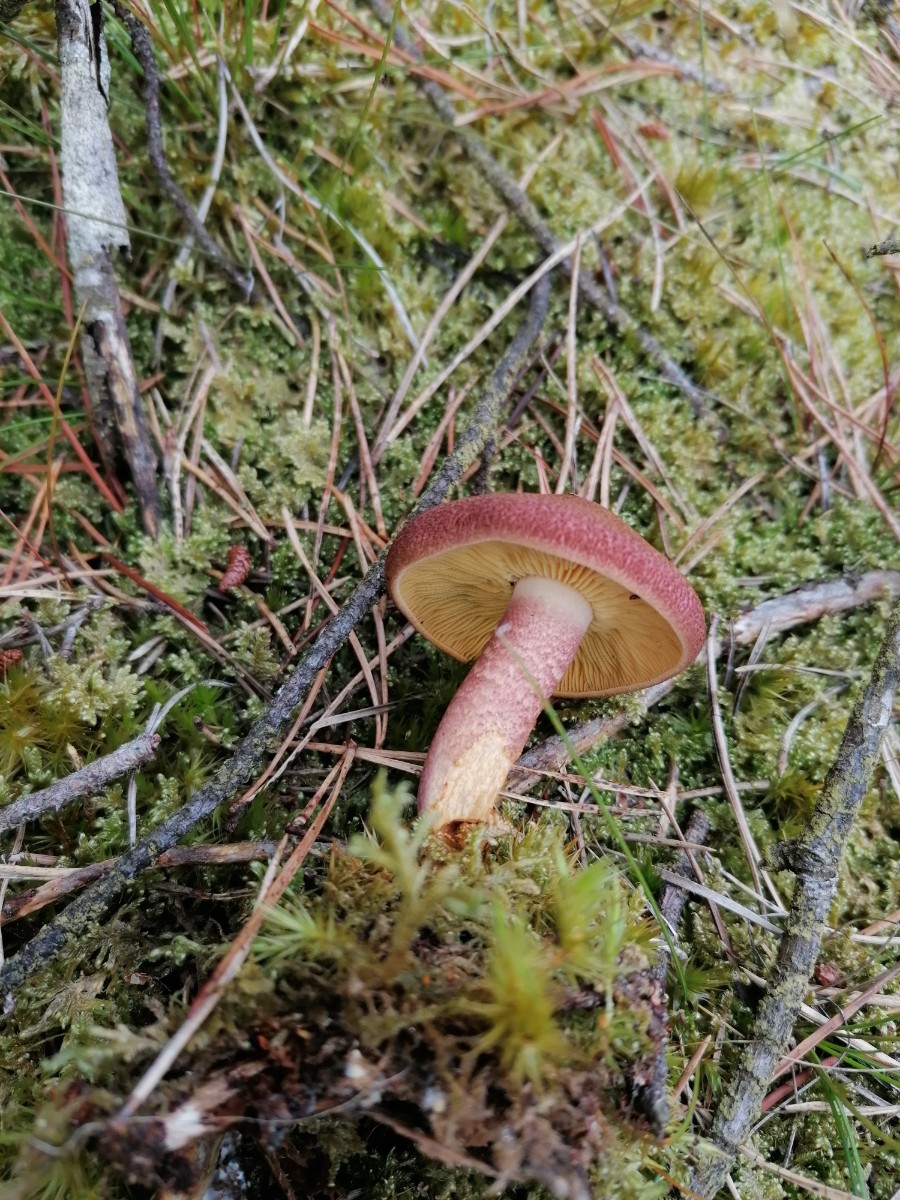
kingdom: Fungi
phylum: Basidiomycota
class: Agaricomycetes
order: Agaricales
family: Tricholomataceae
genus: Tricholomopsis
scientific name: Tricholomopsis rutilans
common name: purpur-væbnerhat
